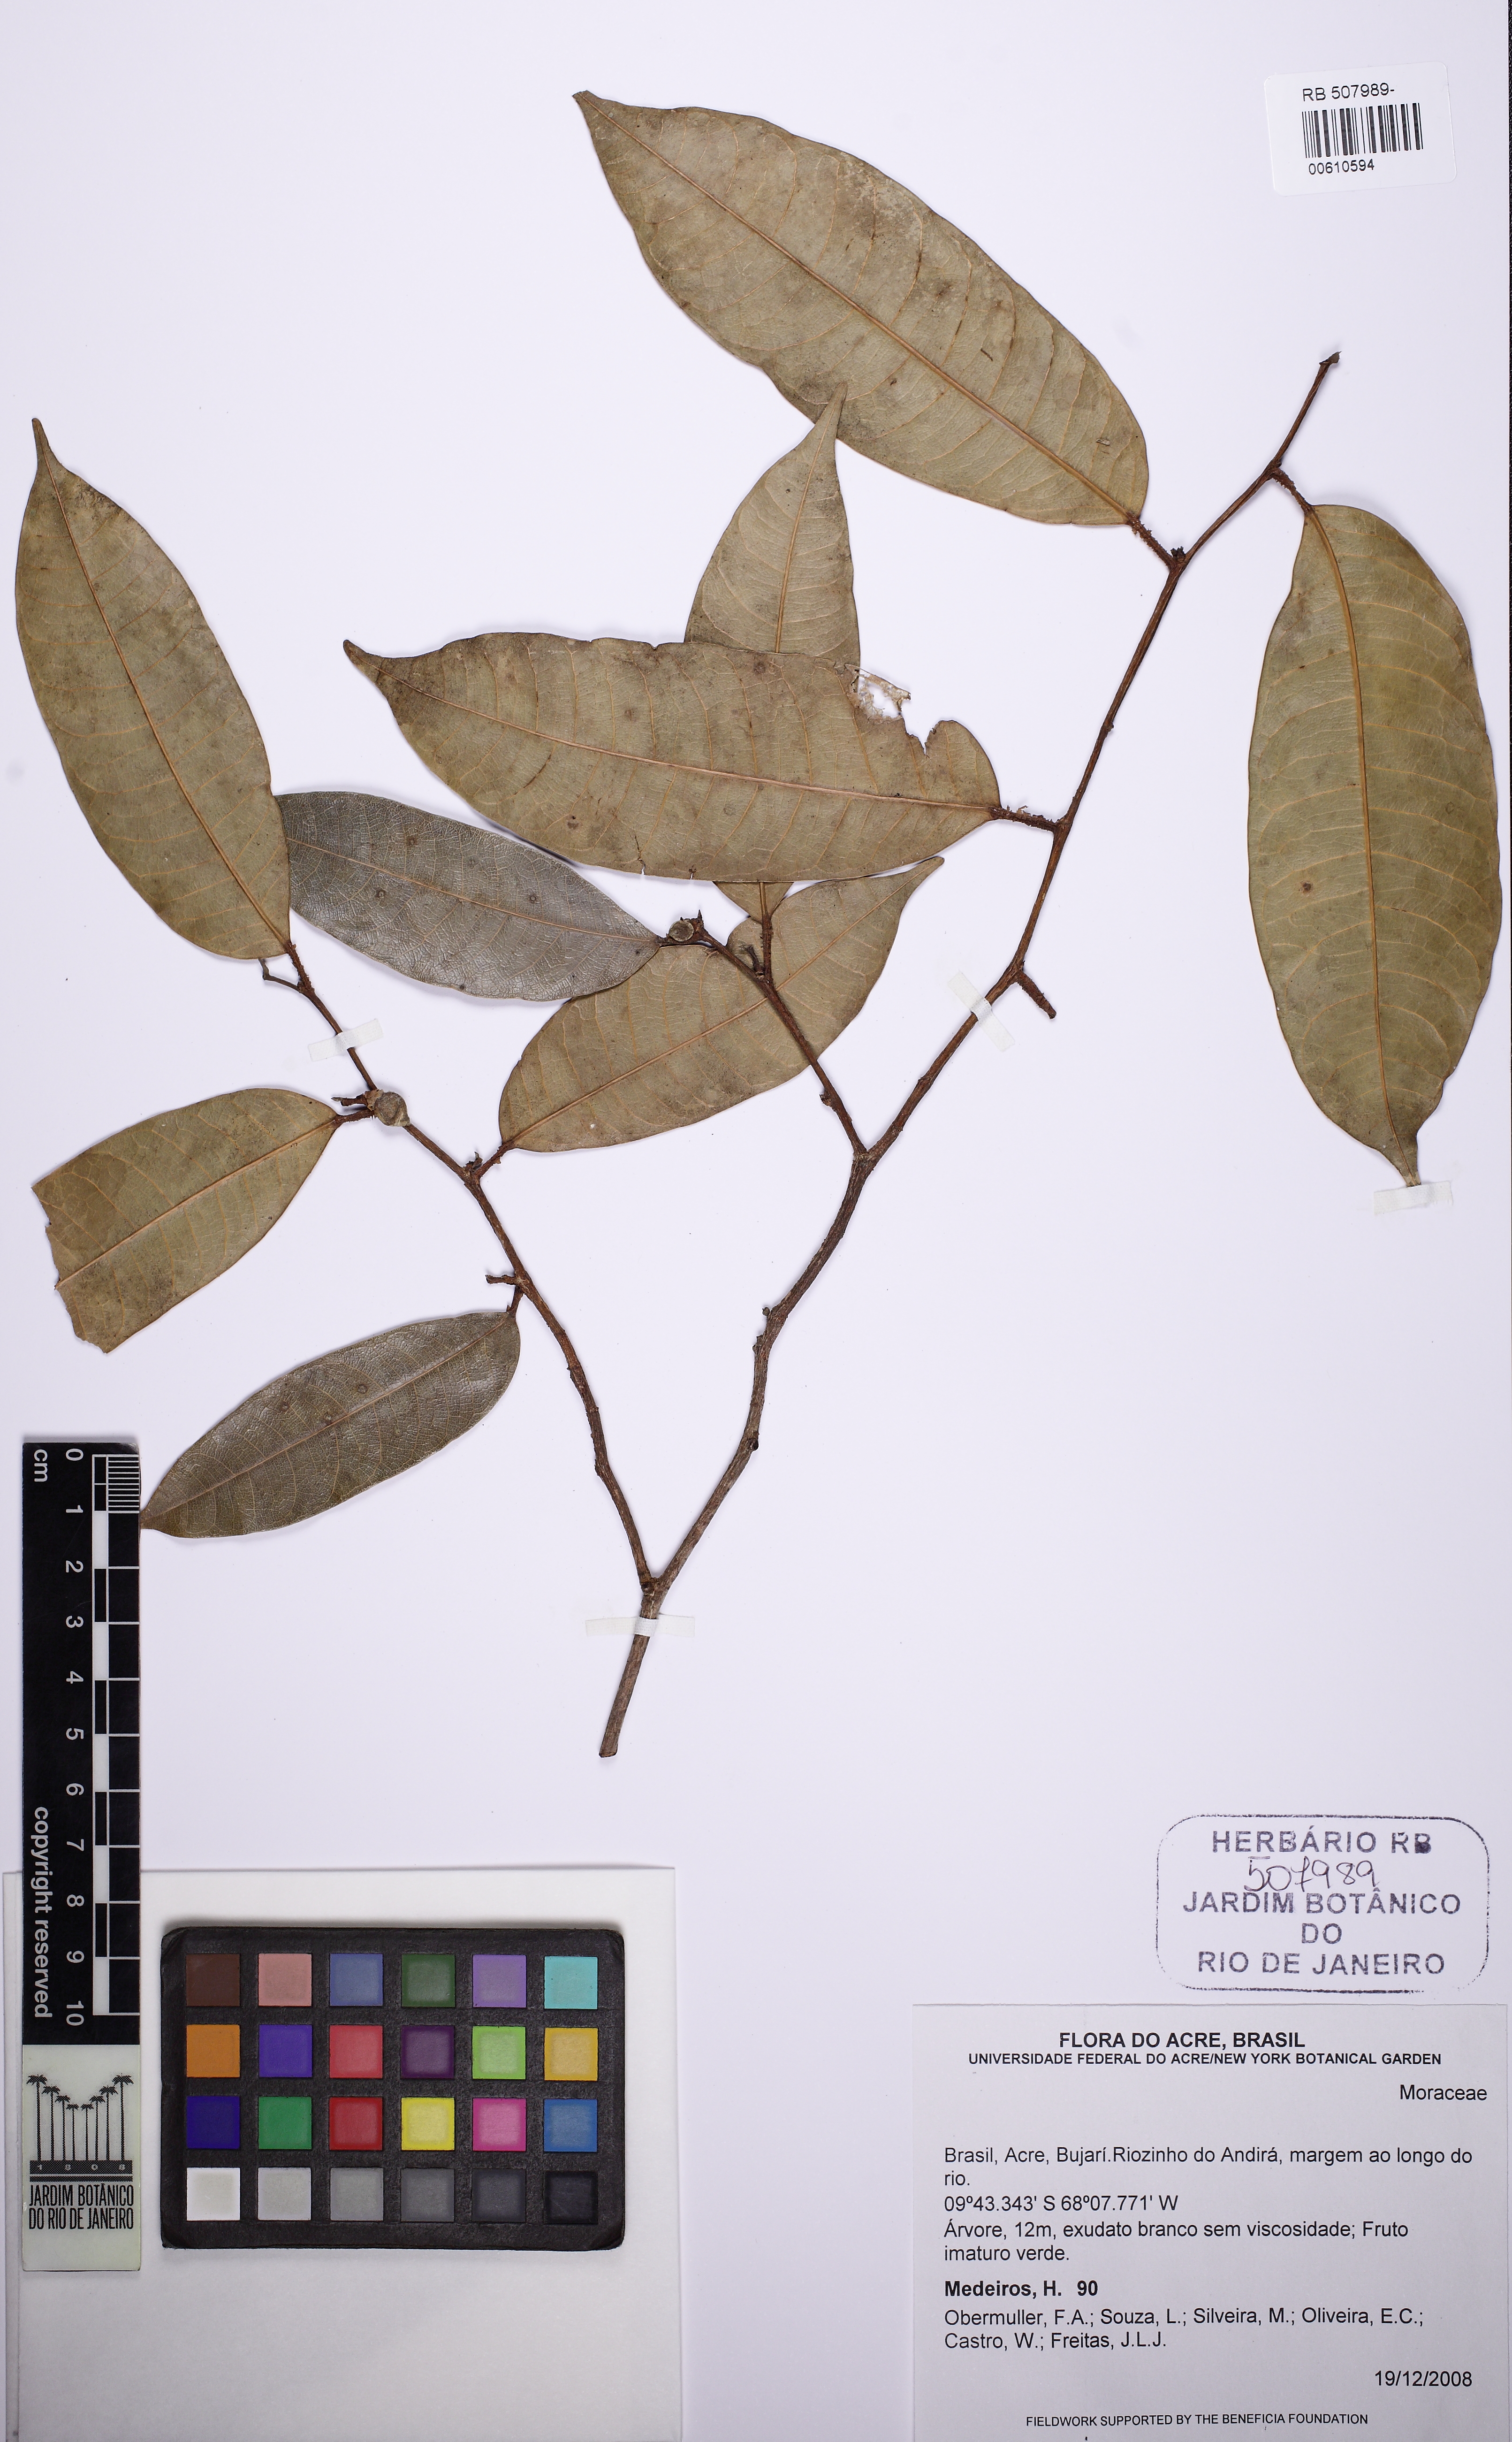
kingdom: Plantae
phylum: Tracheophyta
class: Magnoliopsida
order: Rosales
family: Moraceae
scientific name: Moraceae
